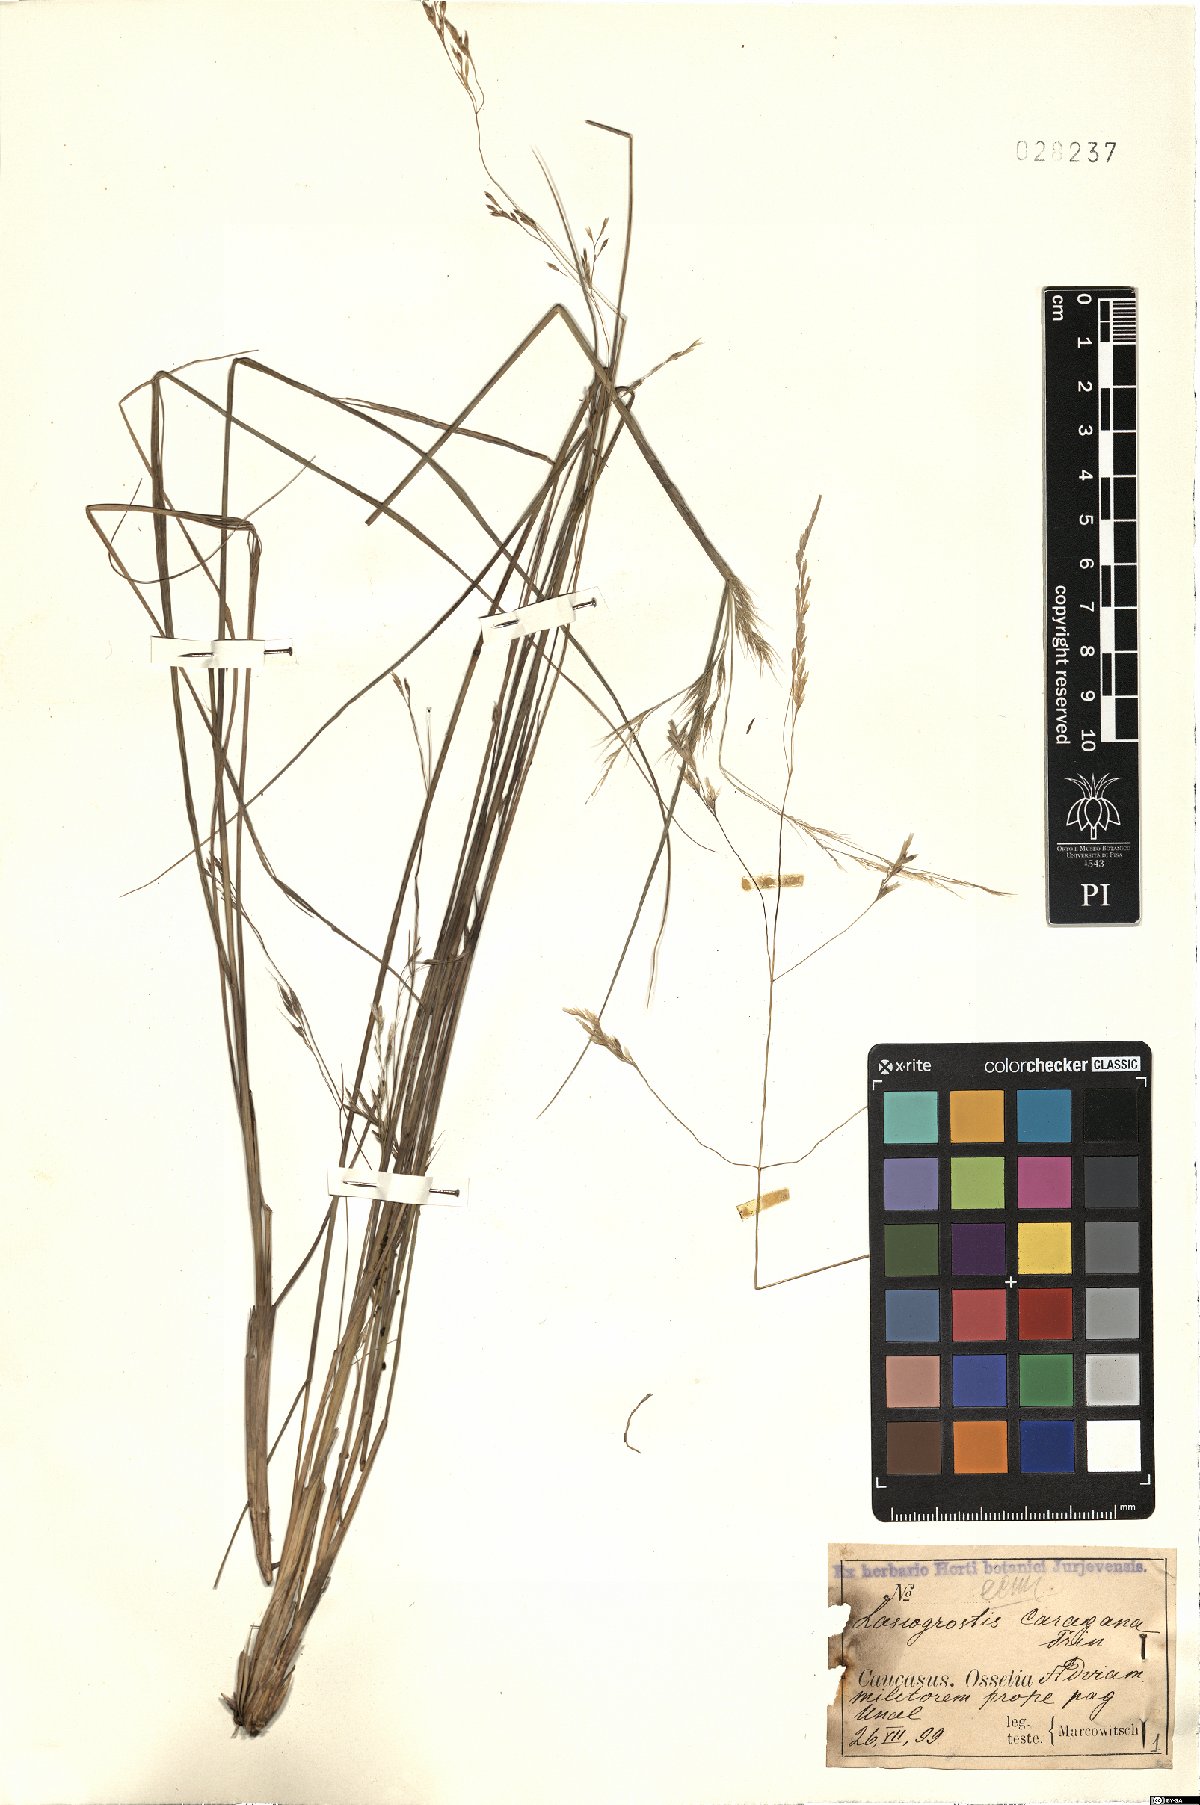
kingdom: Plantae
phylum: Tracheophyta
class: Liliopsida
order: Poales
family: Poaceae
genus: Stipa
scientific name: Stipa conferta
